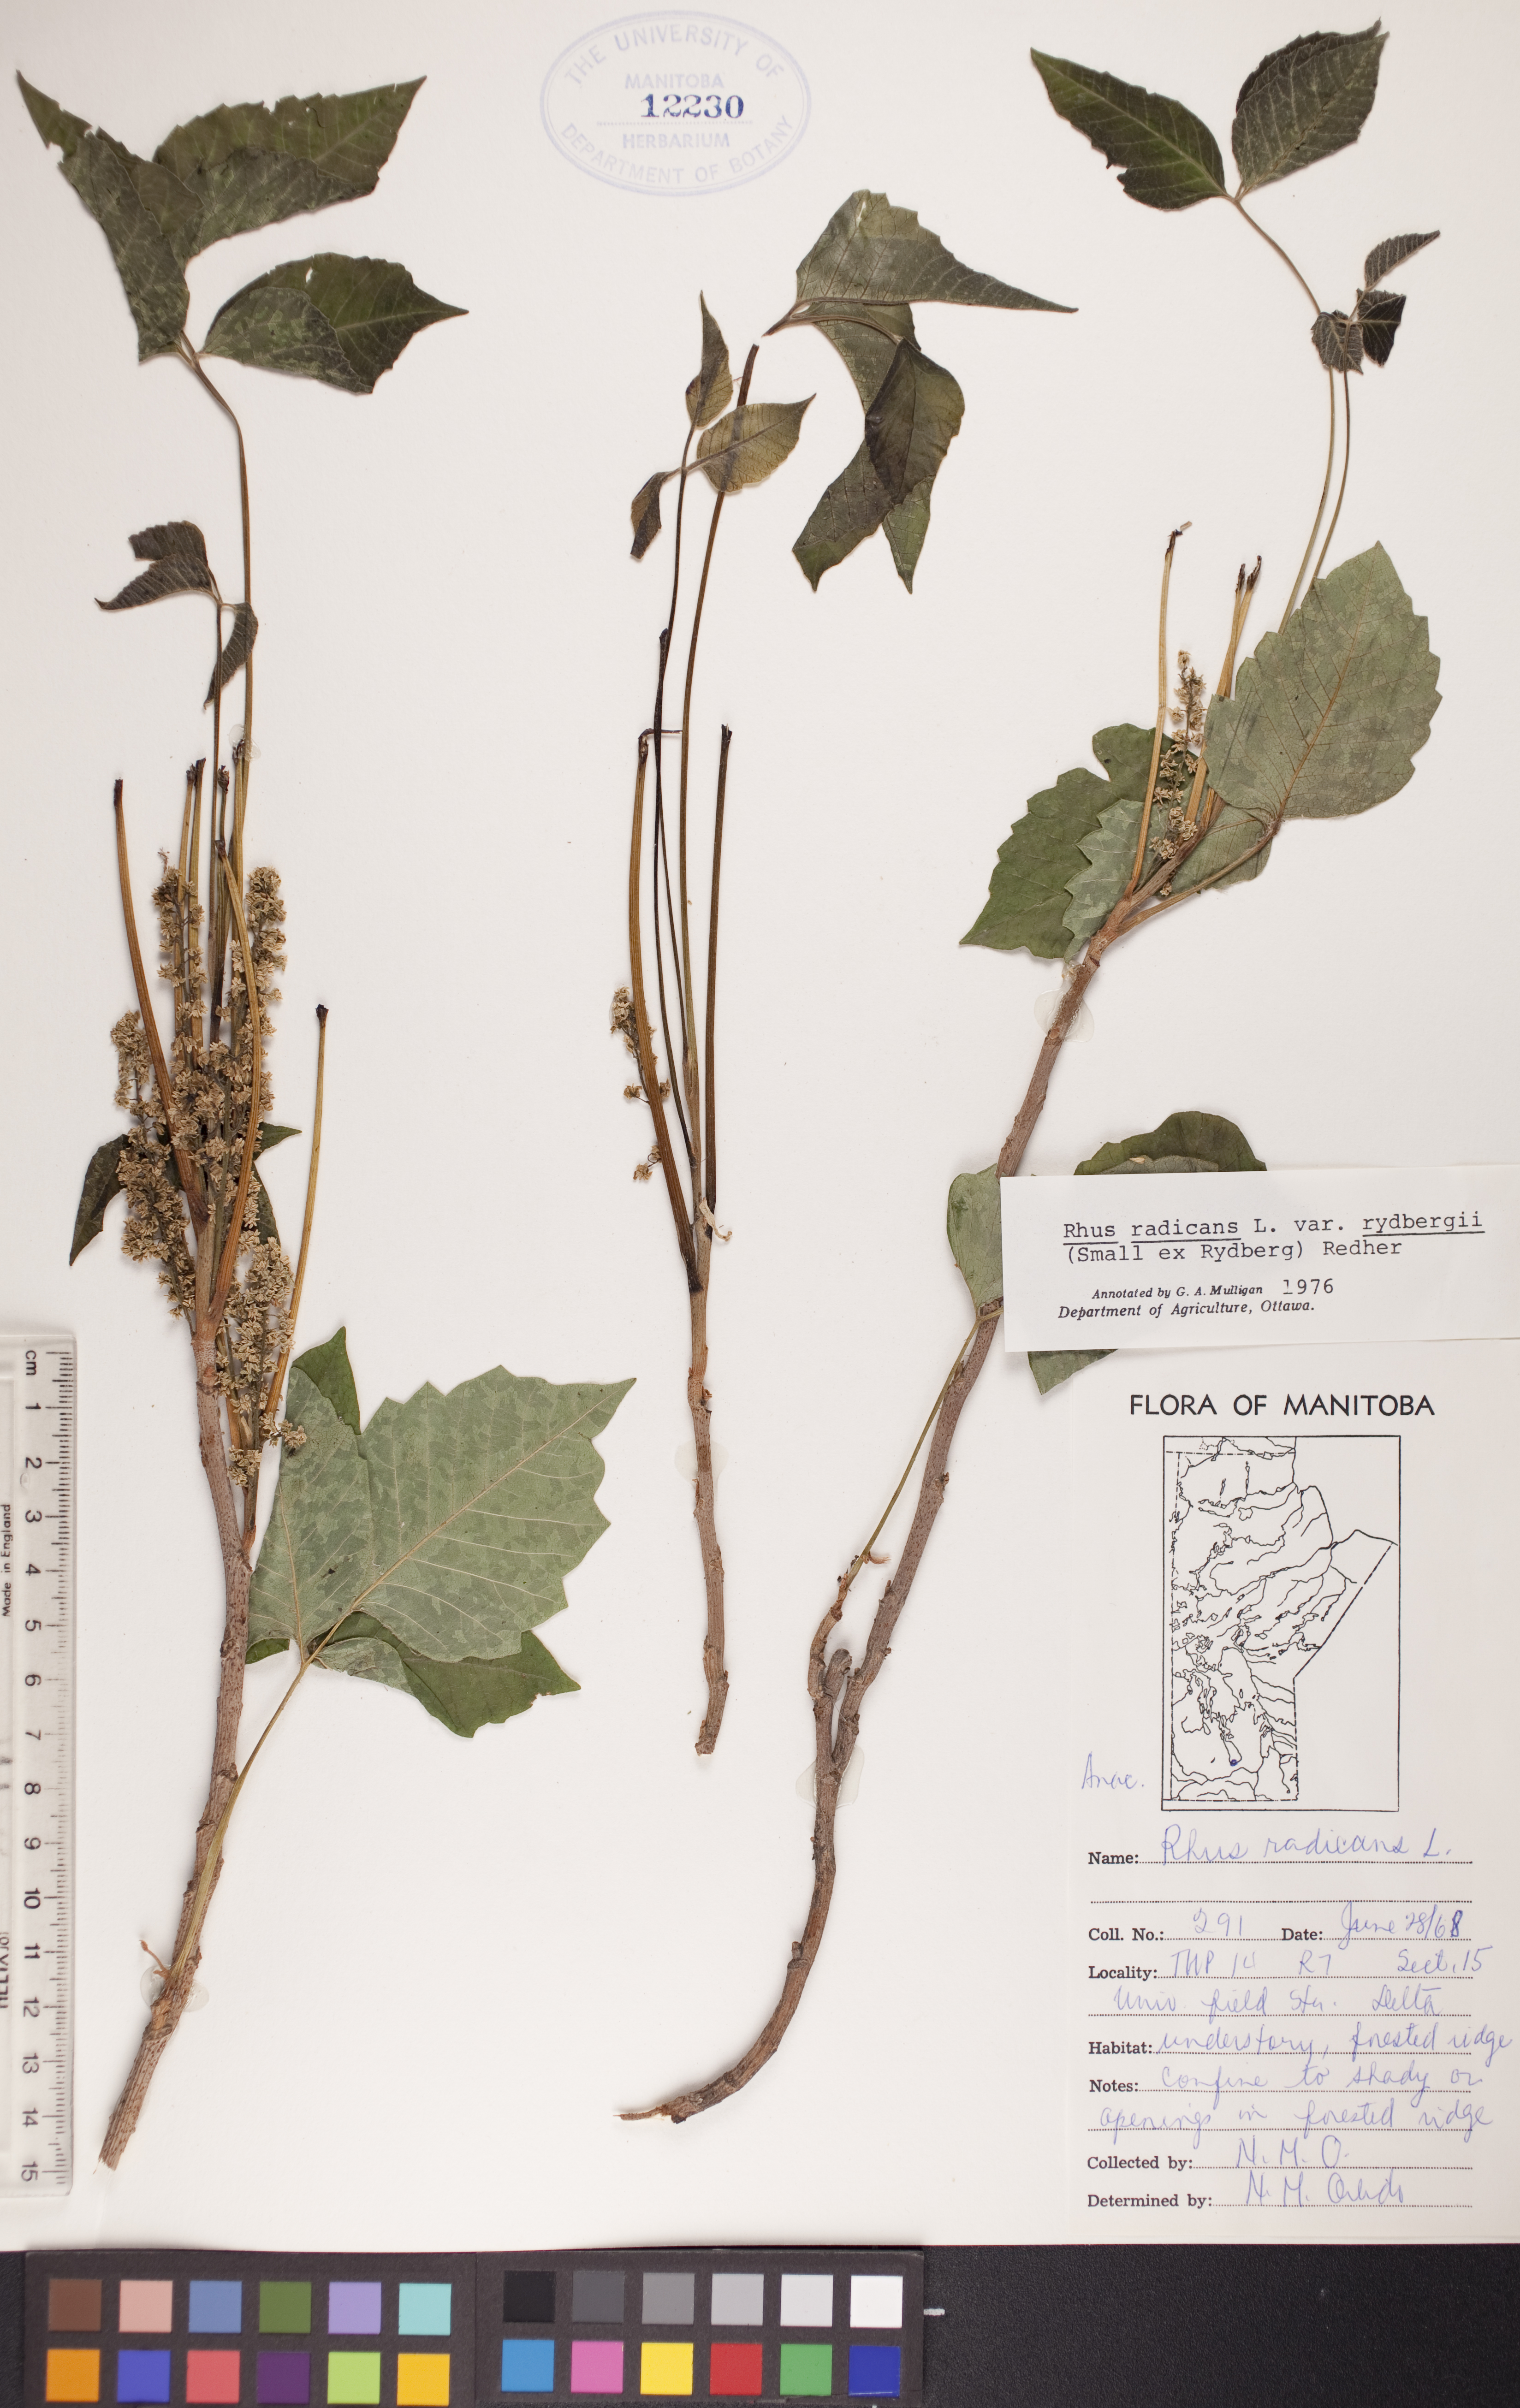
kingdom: Plantae
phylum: Tracheophyta
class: Magnoliopsida
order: Sapindales
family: Anacardiaceae
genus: Toxicodendron
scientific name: Toxicodendron rydbergii
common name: Rydberg's poison-ivy
